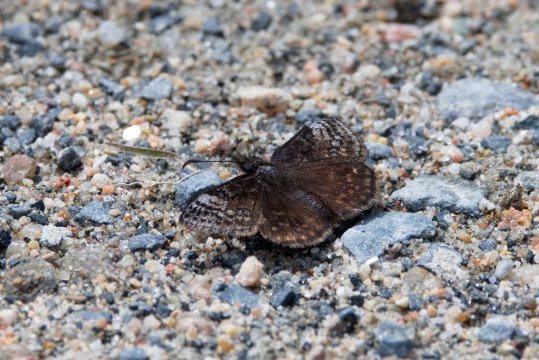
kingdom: Animalia
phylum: Arthropoda
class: Insecta
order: Lepidoptera
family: Hesperiidae
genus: Erynnis
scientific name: Erynnis icelus
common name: Dreamy Duskywing
